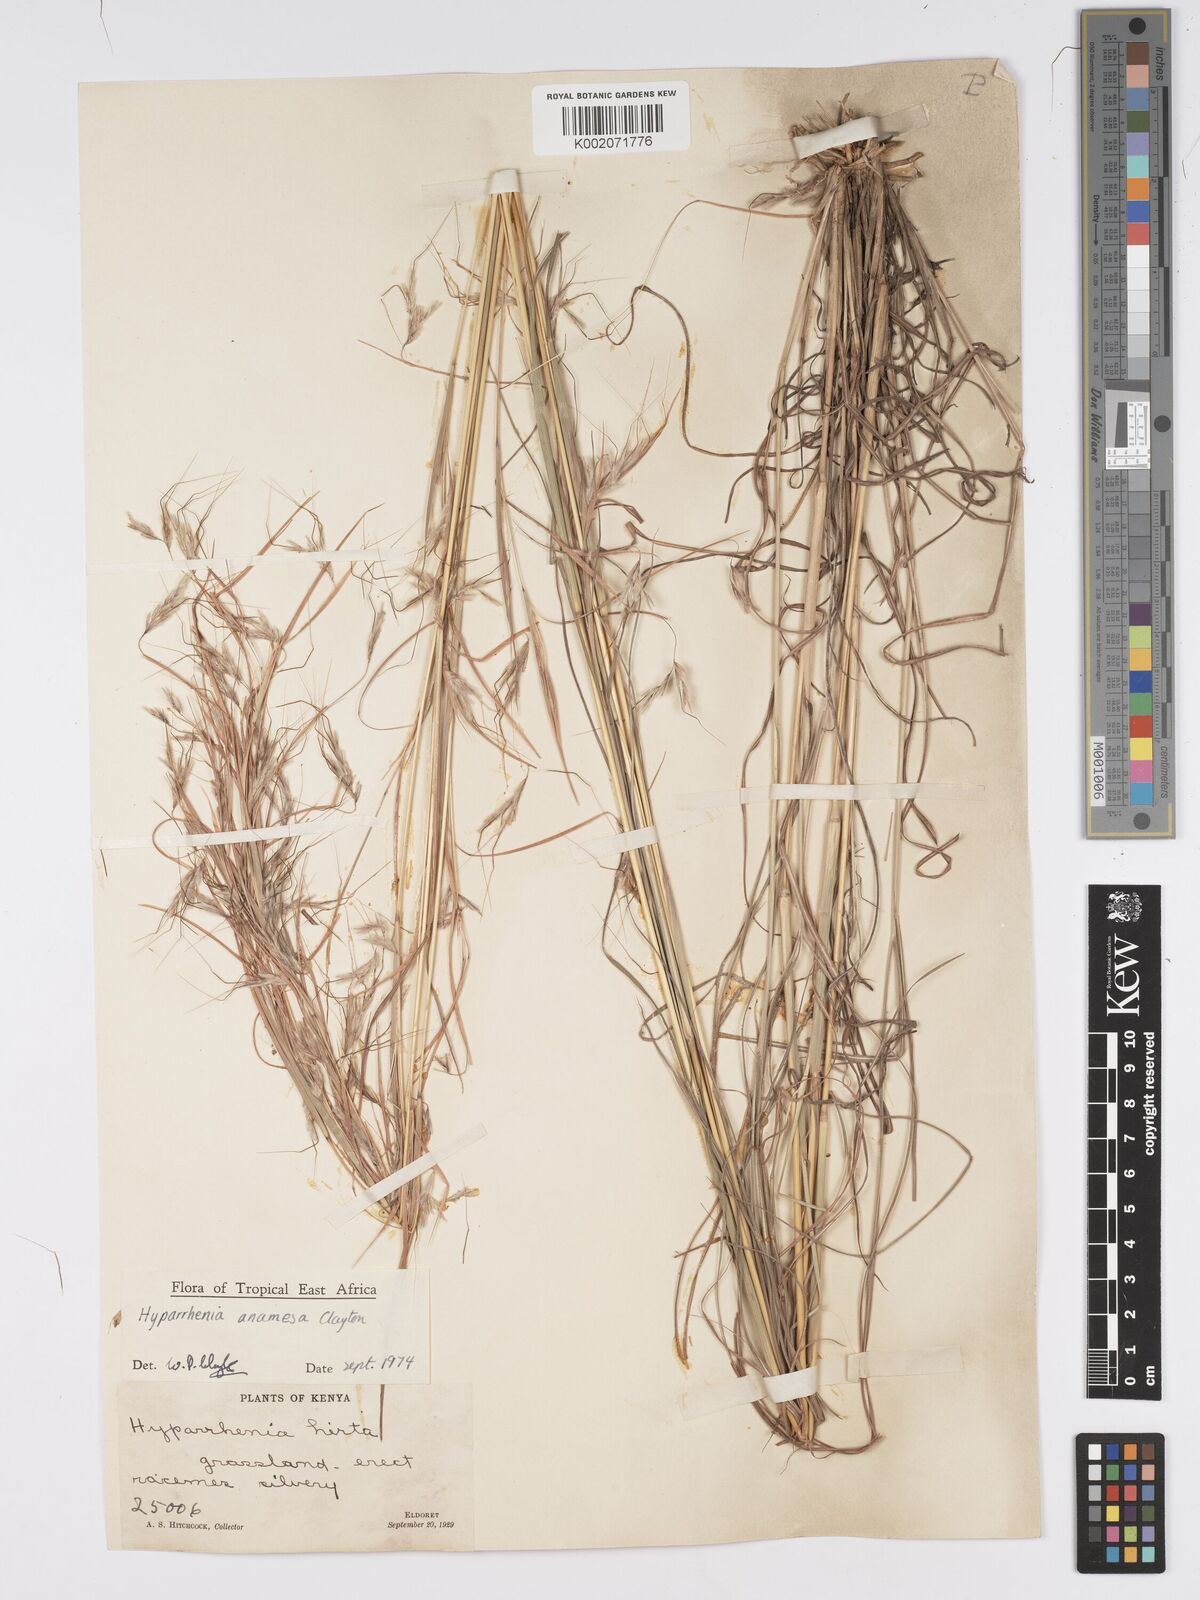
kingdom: Plantae
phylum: Tracheophyta
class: Liliopsida
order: Poales
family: Poaceae
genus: Hyparrhenia
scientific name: Hyparrhenia anamesa
